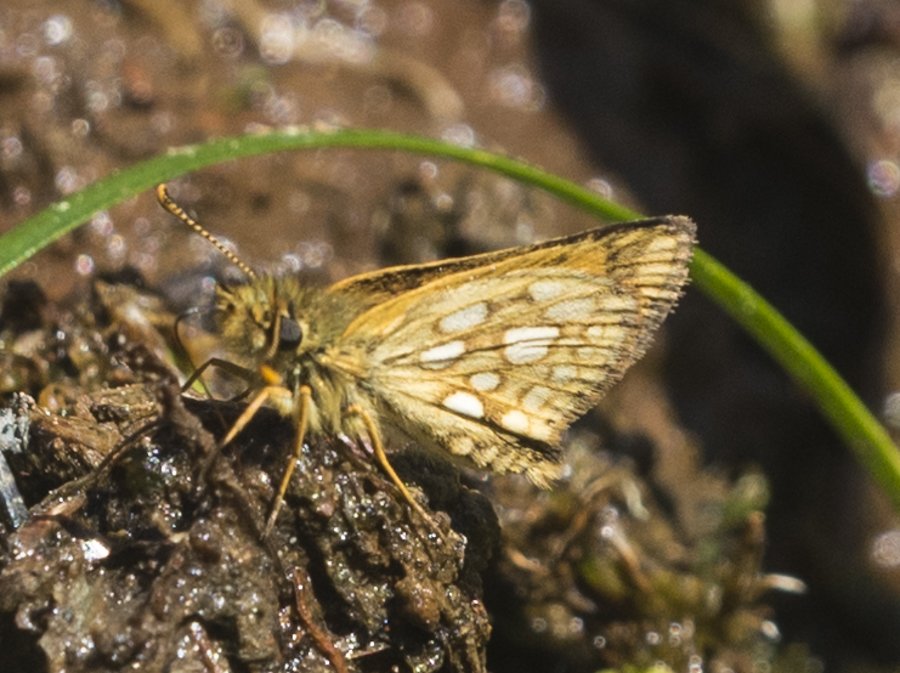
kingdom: Animalia
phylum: Arthropoda
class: Insecta
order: Lepidoptera
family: Hesperiidae
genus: Carterocephalus
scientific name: Carterocephalus palaemon
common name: Chequered Skipper
